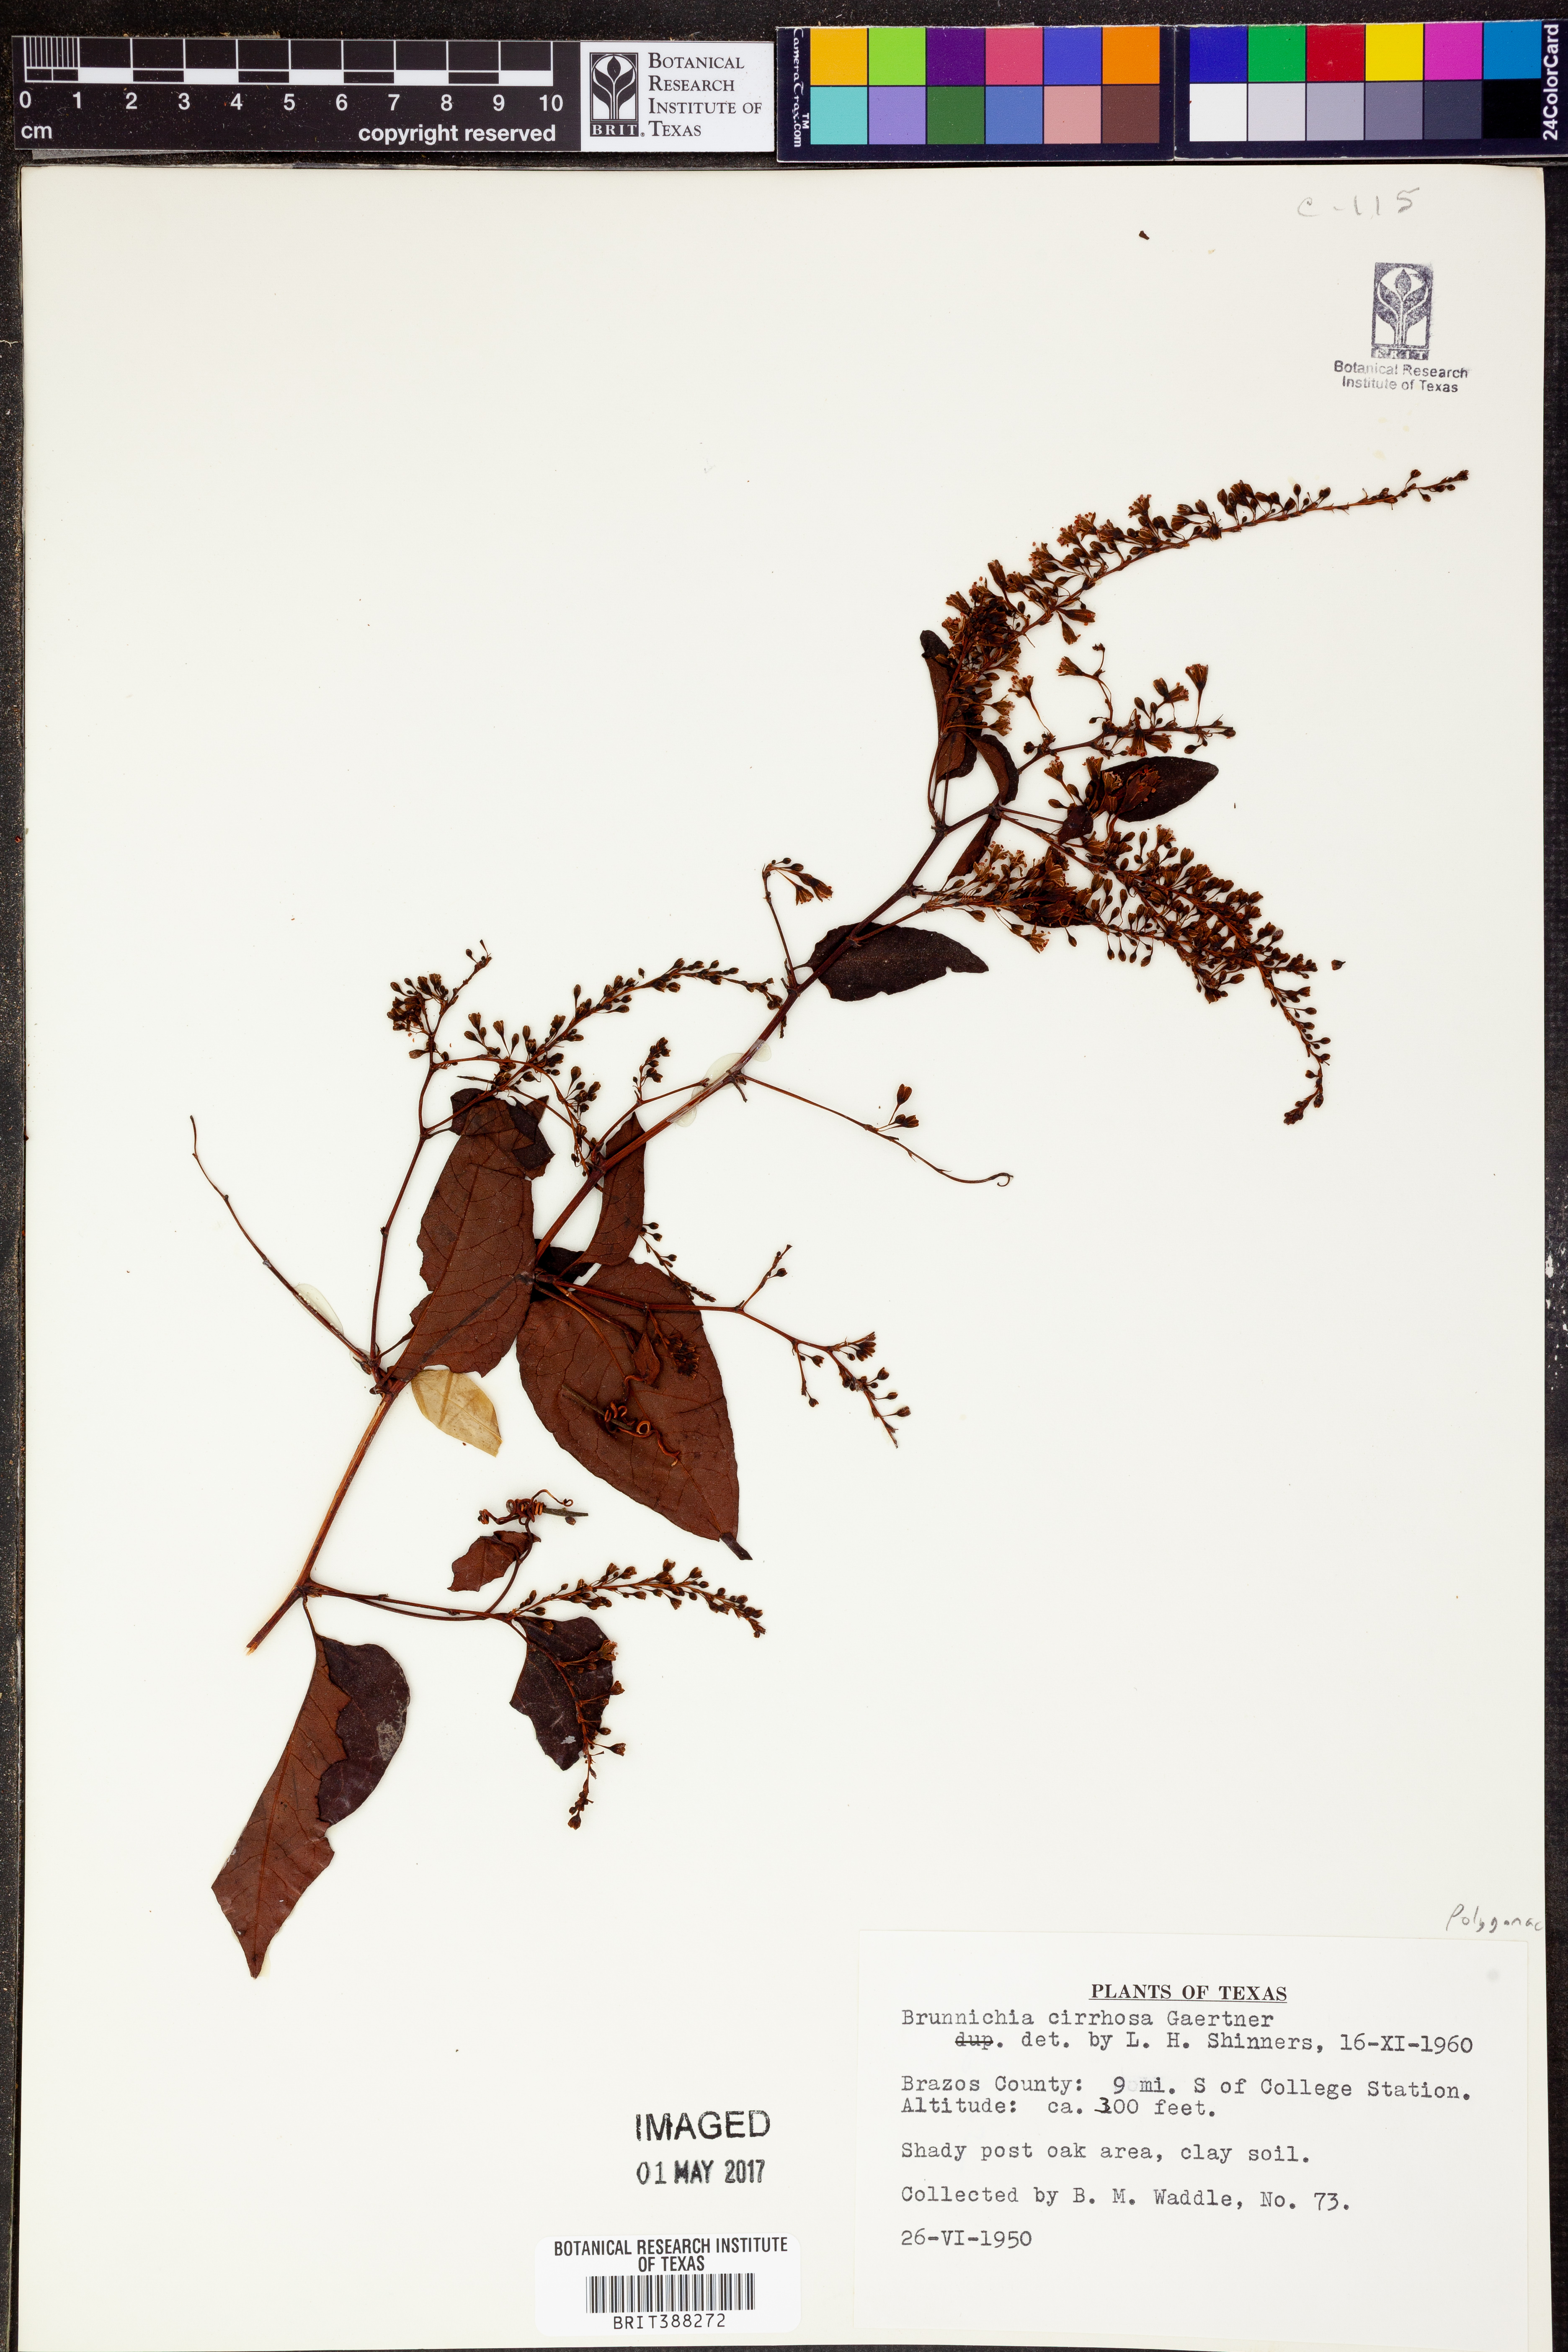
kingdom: Plantae
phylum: Tracheophyta
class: Magnoliopsida
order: Caryophyllales
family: Polygonaceae
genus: Brunnichia
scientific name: Brunnichia ovata
